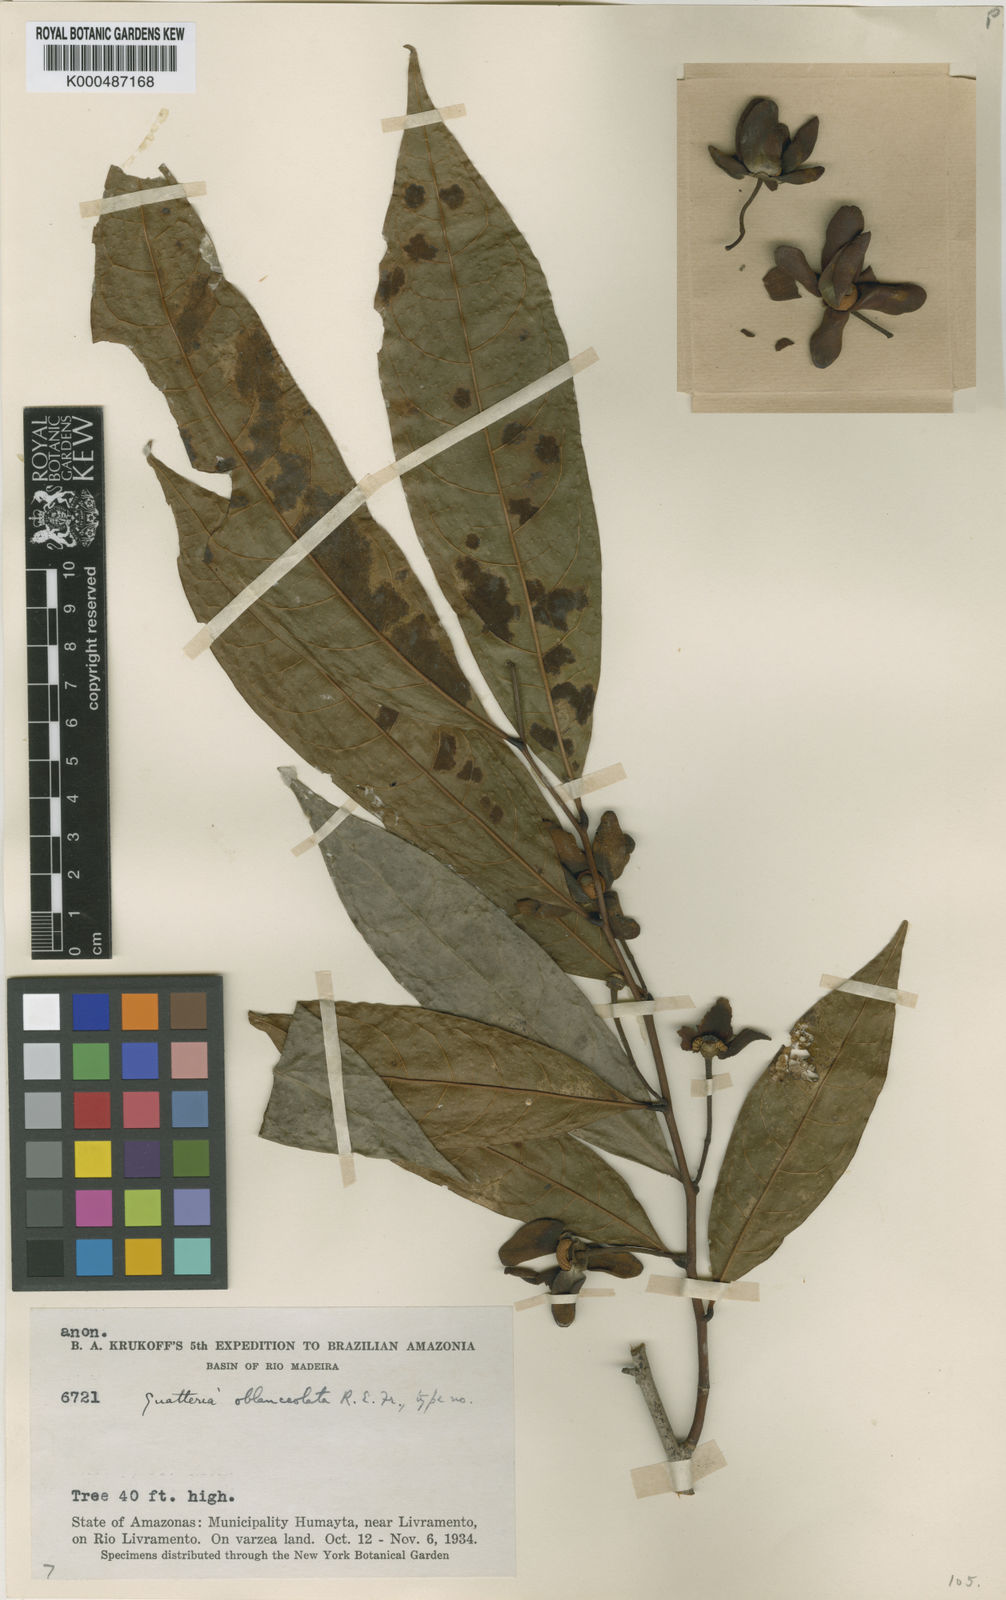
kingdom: Plantae
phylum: Tracheophyta
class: Magnoliopsida
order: Magnoliales
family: Annonaceae
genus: Guatteria
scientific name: Guatteria oblanceolata
